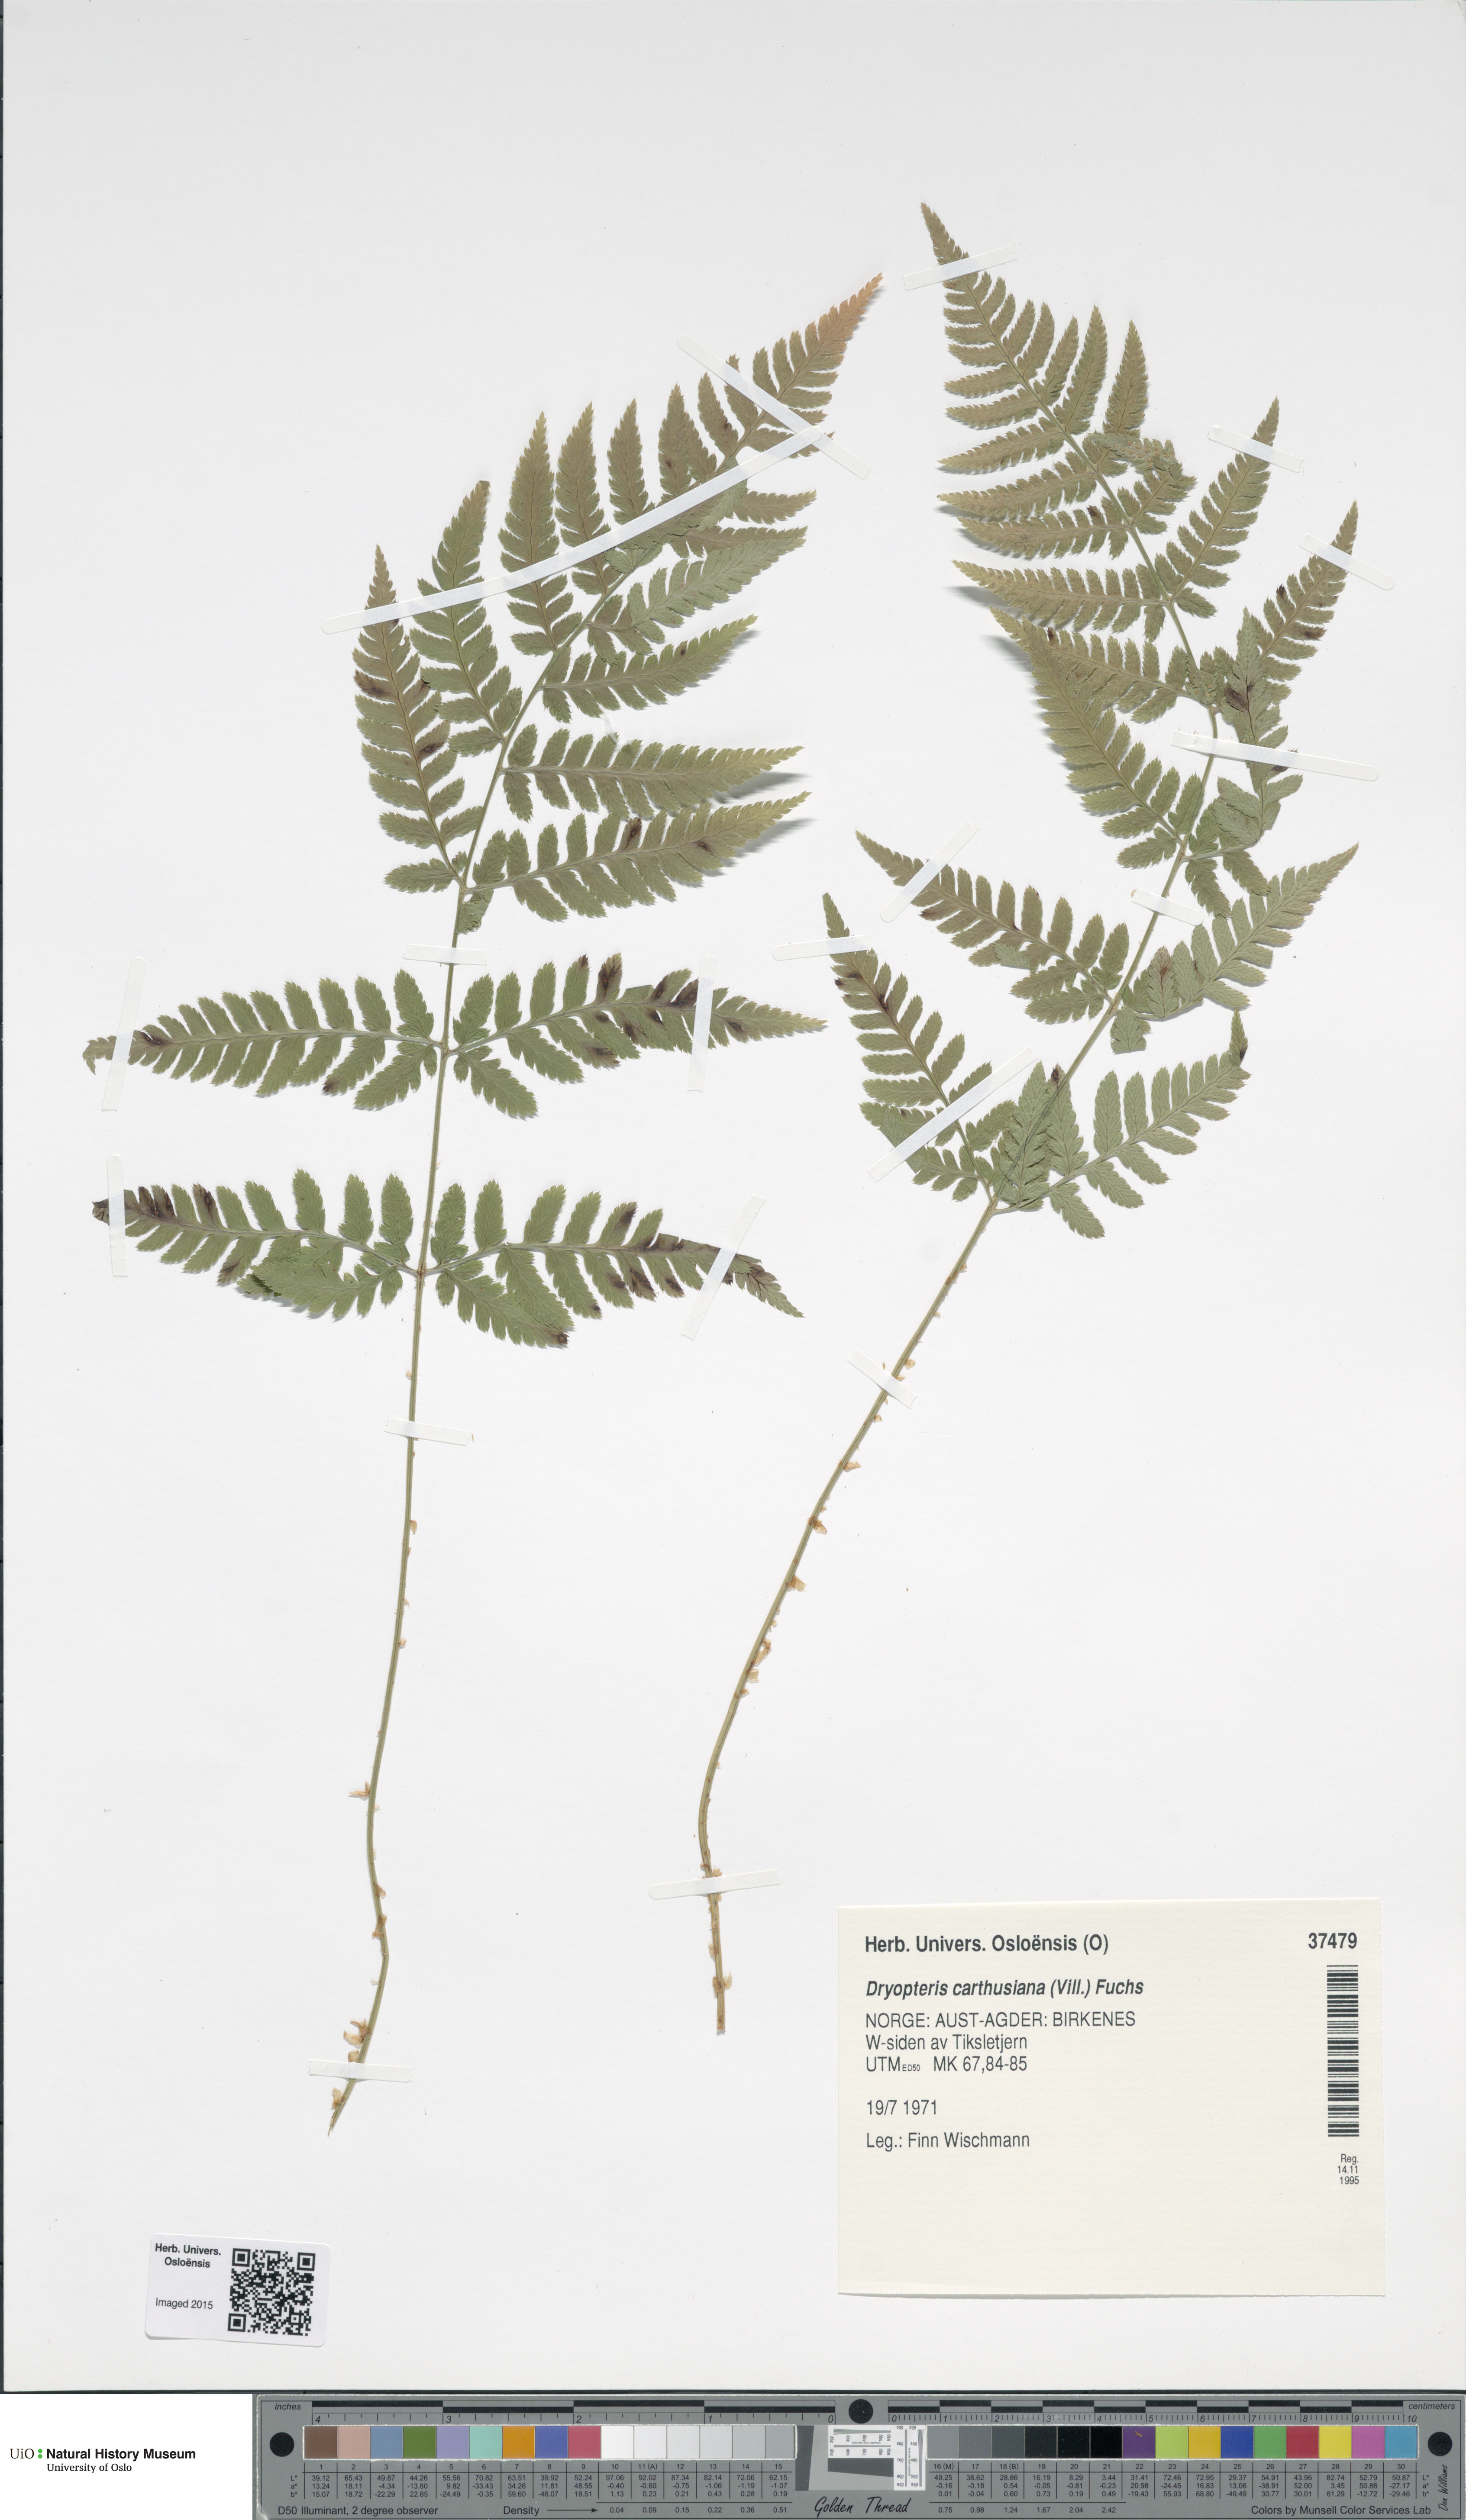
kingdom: Plantae
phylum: Tracheophyta
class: Polypodiopsida
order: Polypodiales
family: Dryopteridaceae
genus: Dryopteris
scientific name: Dryopteris carthusiana
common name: Narrow buckler-fern
